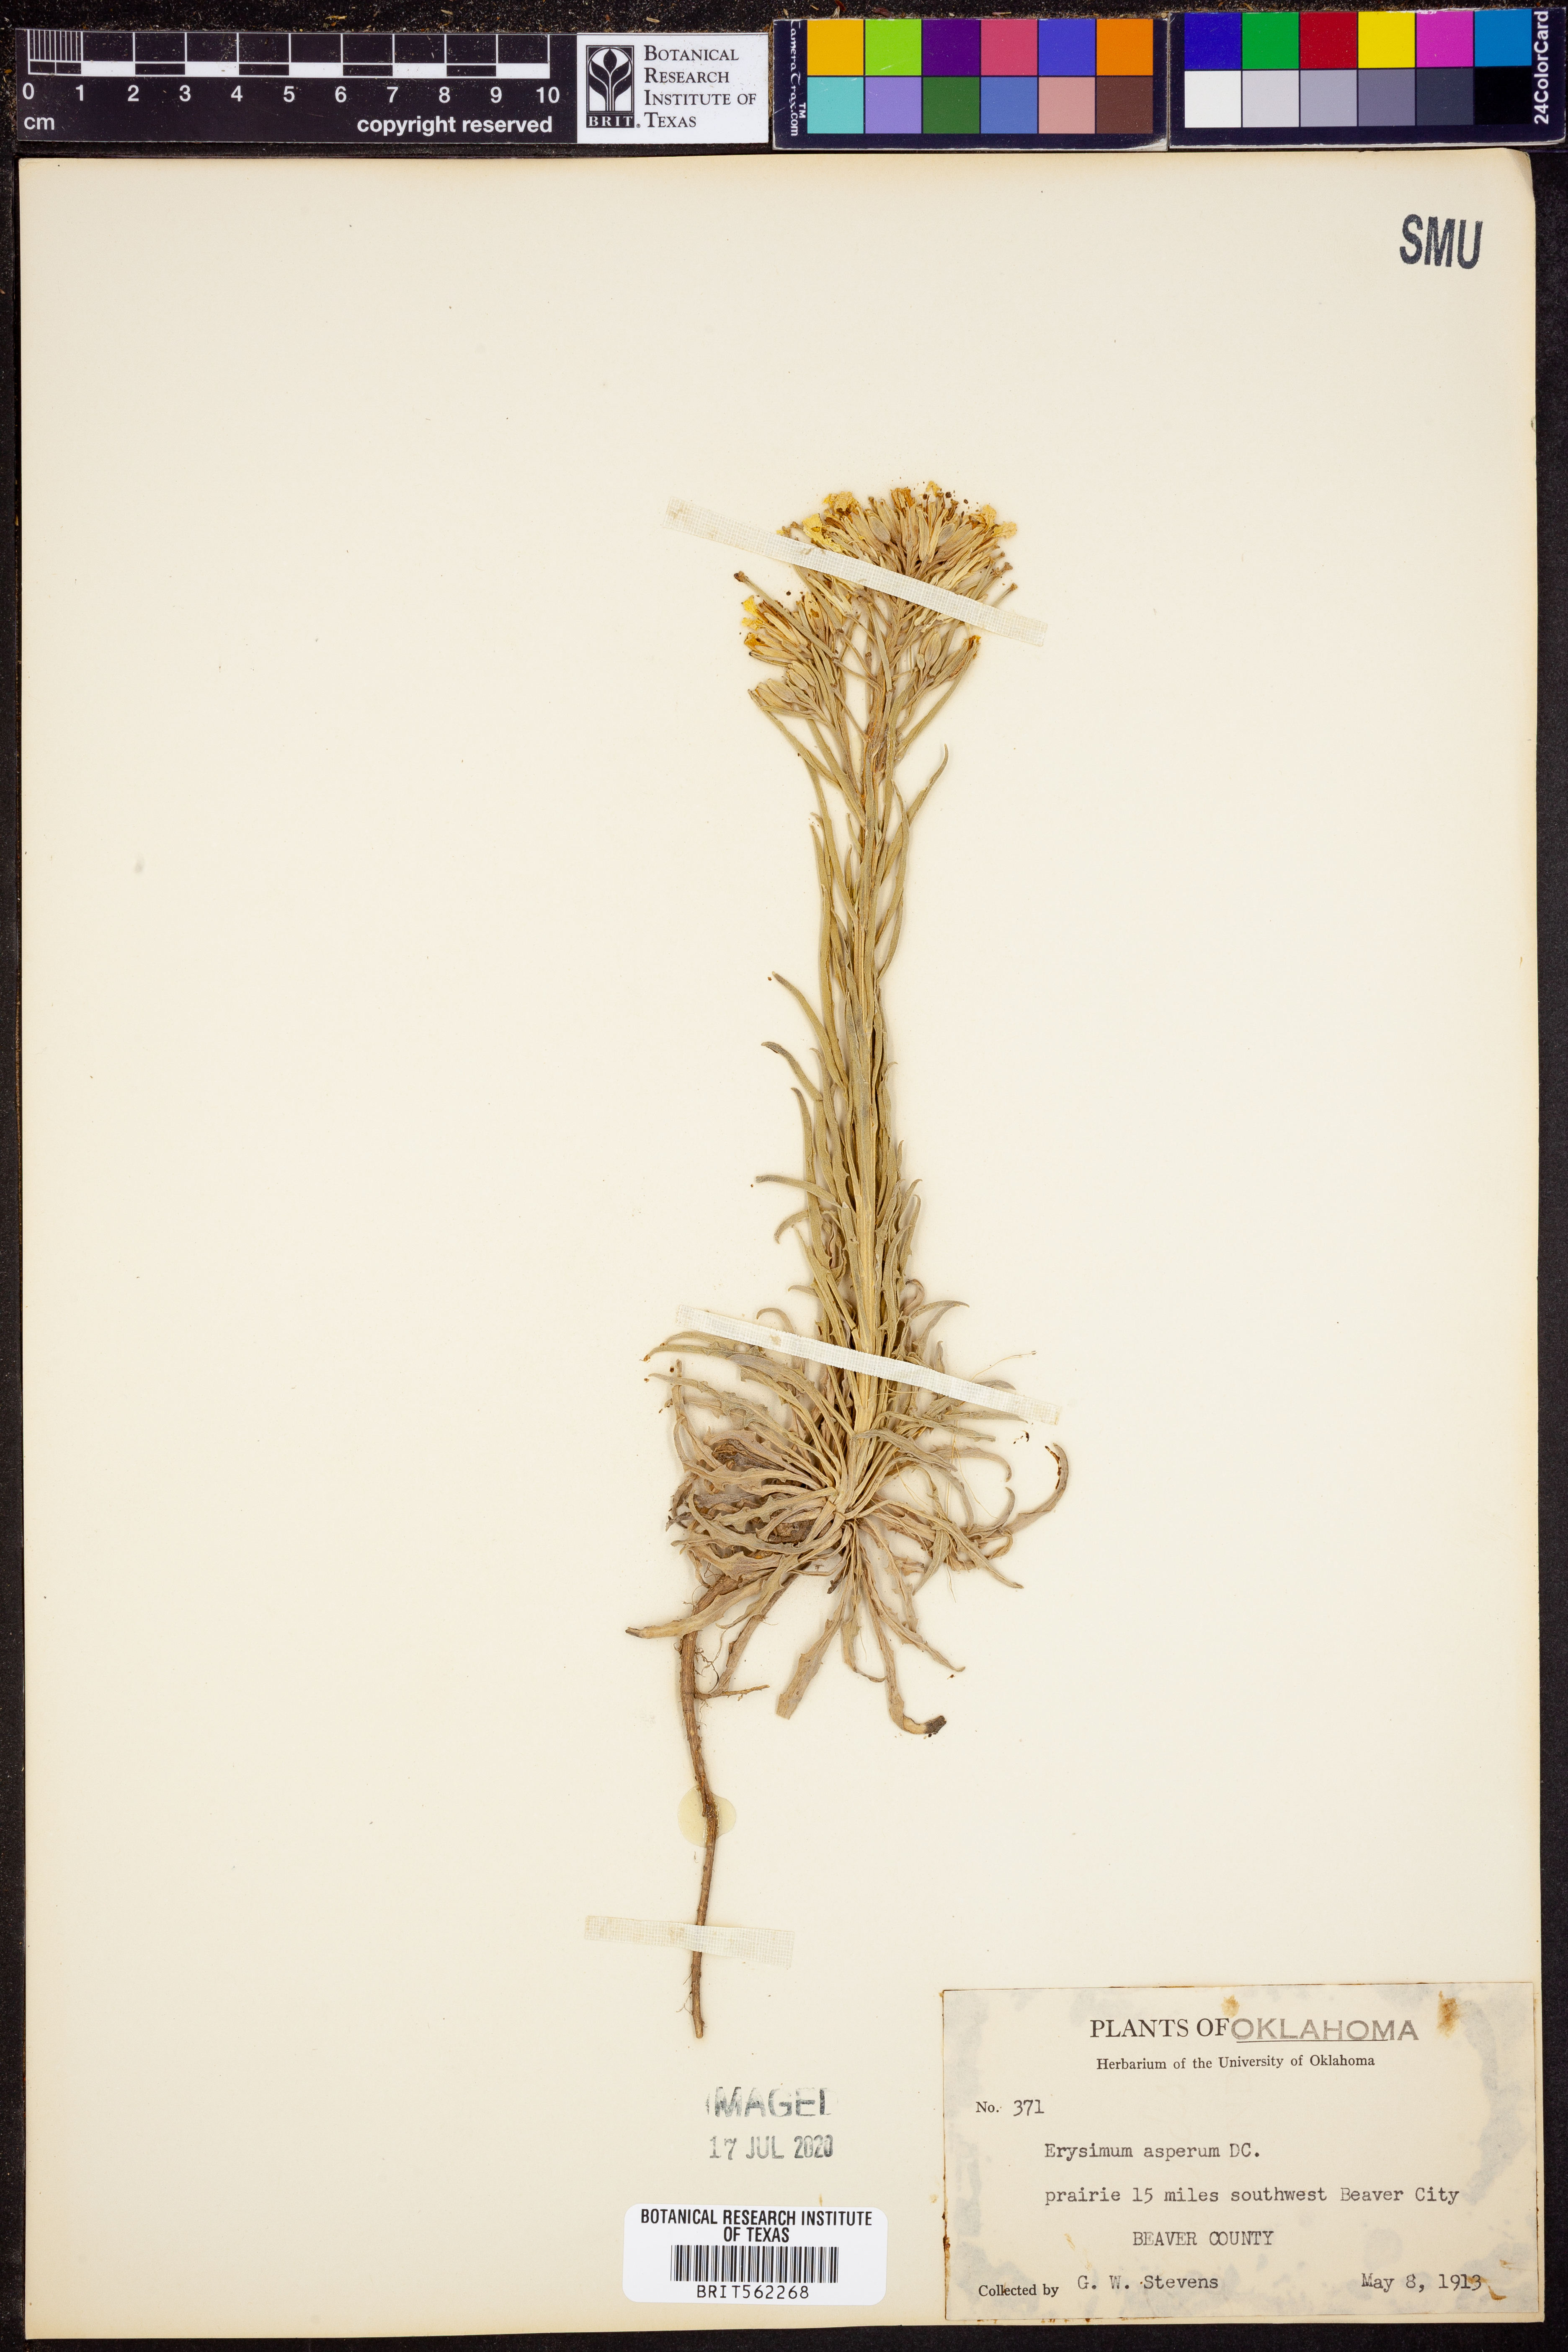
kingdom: Plantae
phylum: Tracheophyta
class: Magnoliopsida
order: Brassicales
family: Brassicaceae
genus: Erysimum
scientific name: Erysimum asperum
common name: Western wallflower
